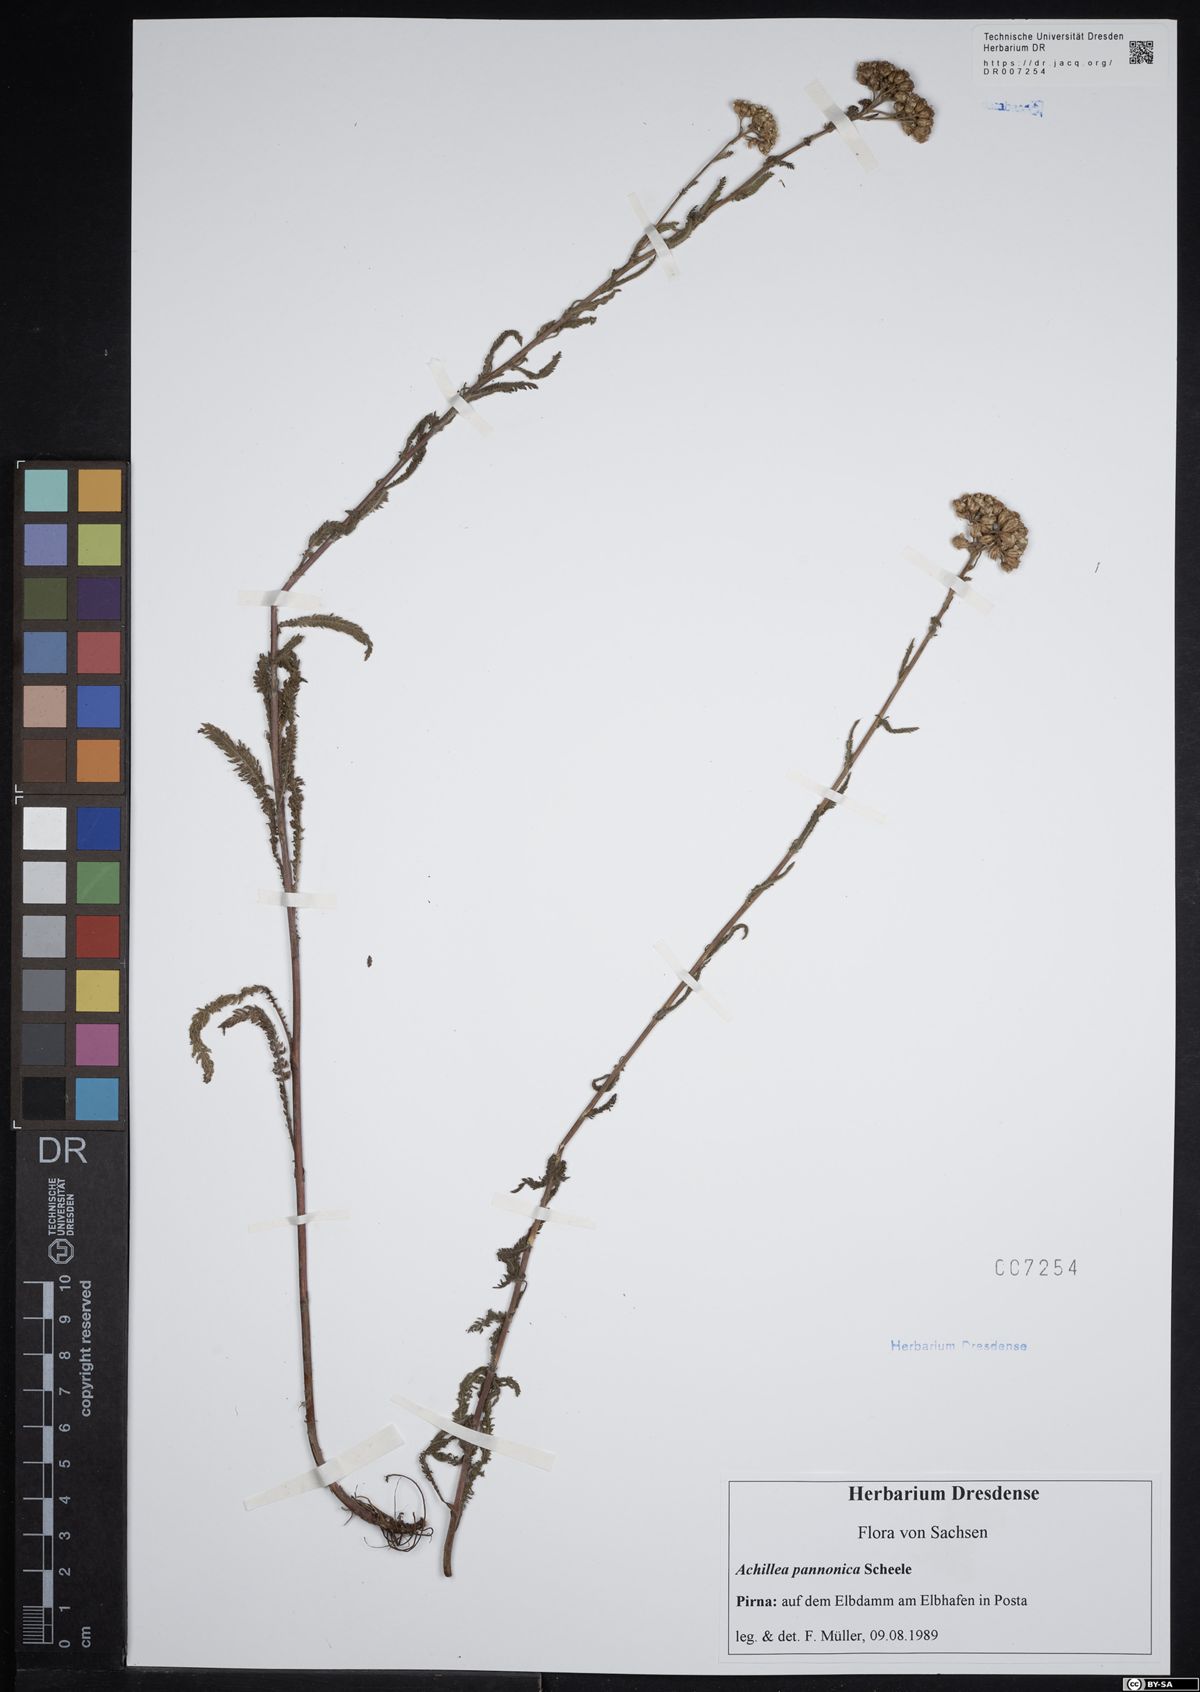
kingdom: Plantae
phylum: Tracheophyta
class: Magnoliopsida
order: Asterales
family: Asteraceae
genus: Achillea
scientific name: Achillea pannonica
